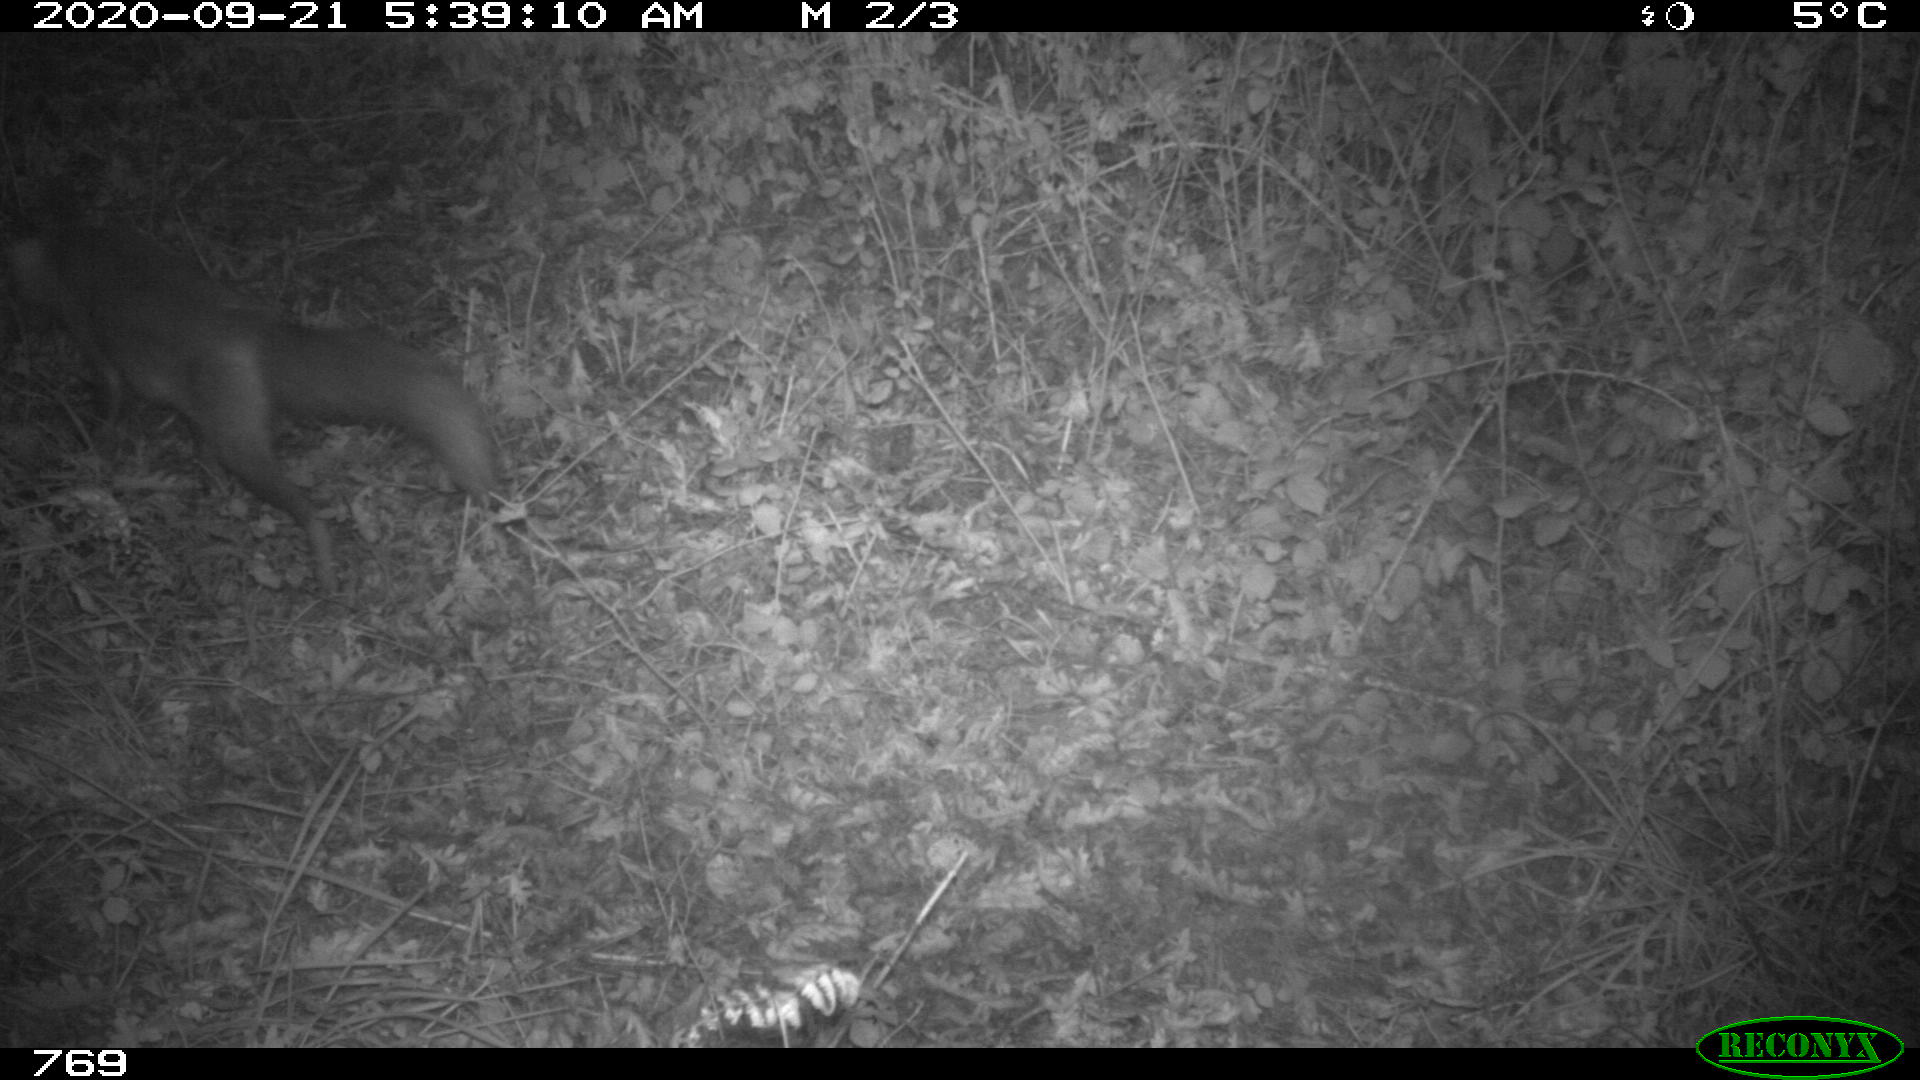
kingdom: Animalia
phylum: Chordata
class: Mammalia
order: Carnivora
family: Canidae
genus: Vulpes
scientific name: Vulpes vulpes
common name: Red fox
